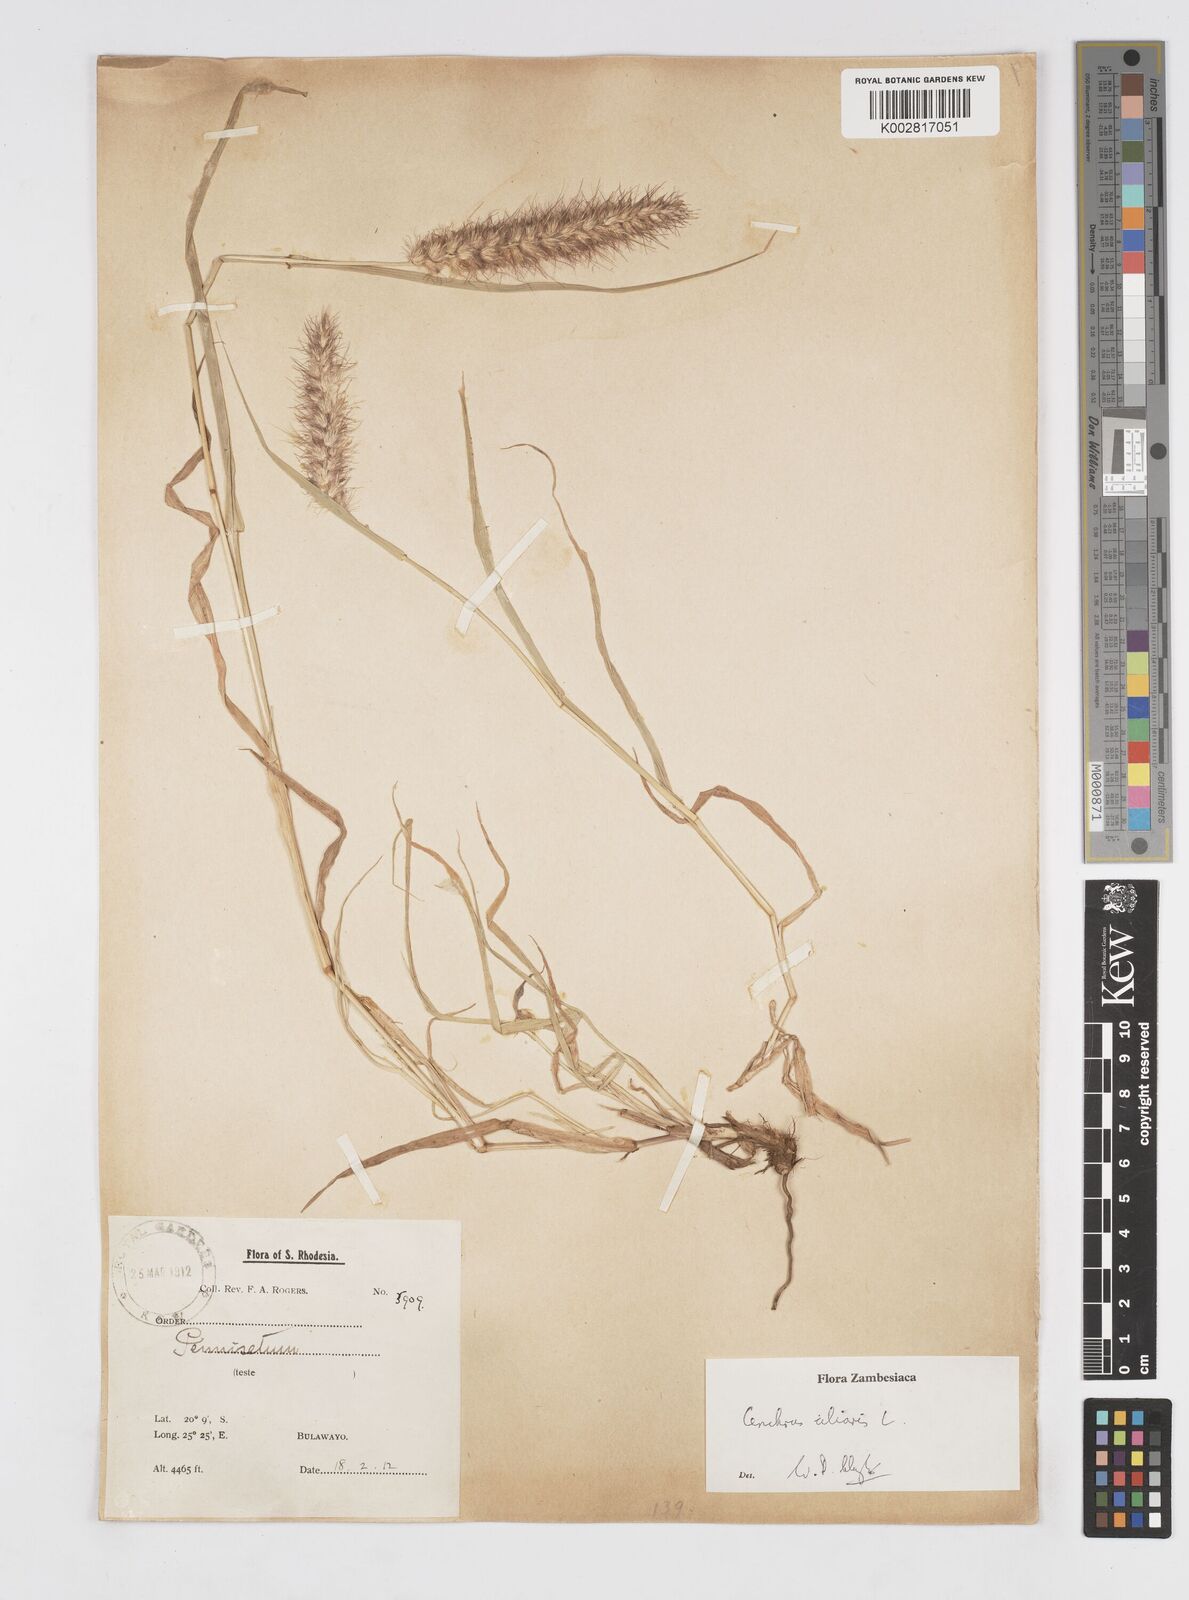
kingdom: Plantae
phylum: Tracheophyta
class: Liliopsida
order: Poales
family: Poaceae
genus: Cenchrus
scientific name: Cenchrus ciliaris
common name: Buffelgrass
